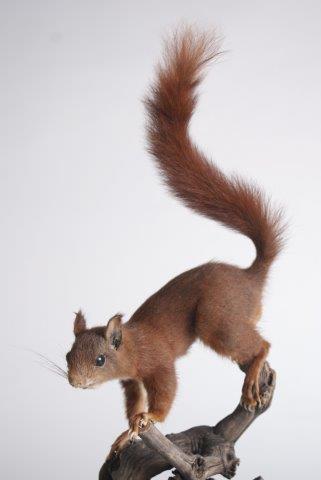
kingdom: Animalia
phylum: Chordata
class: Mammalia
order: Rodentia
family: Sciuridae
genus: Sciurus
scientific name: Sciurus vulgaris
